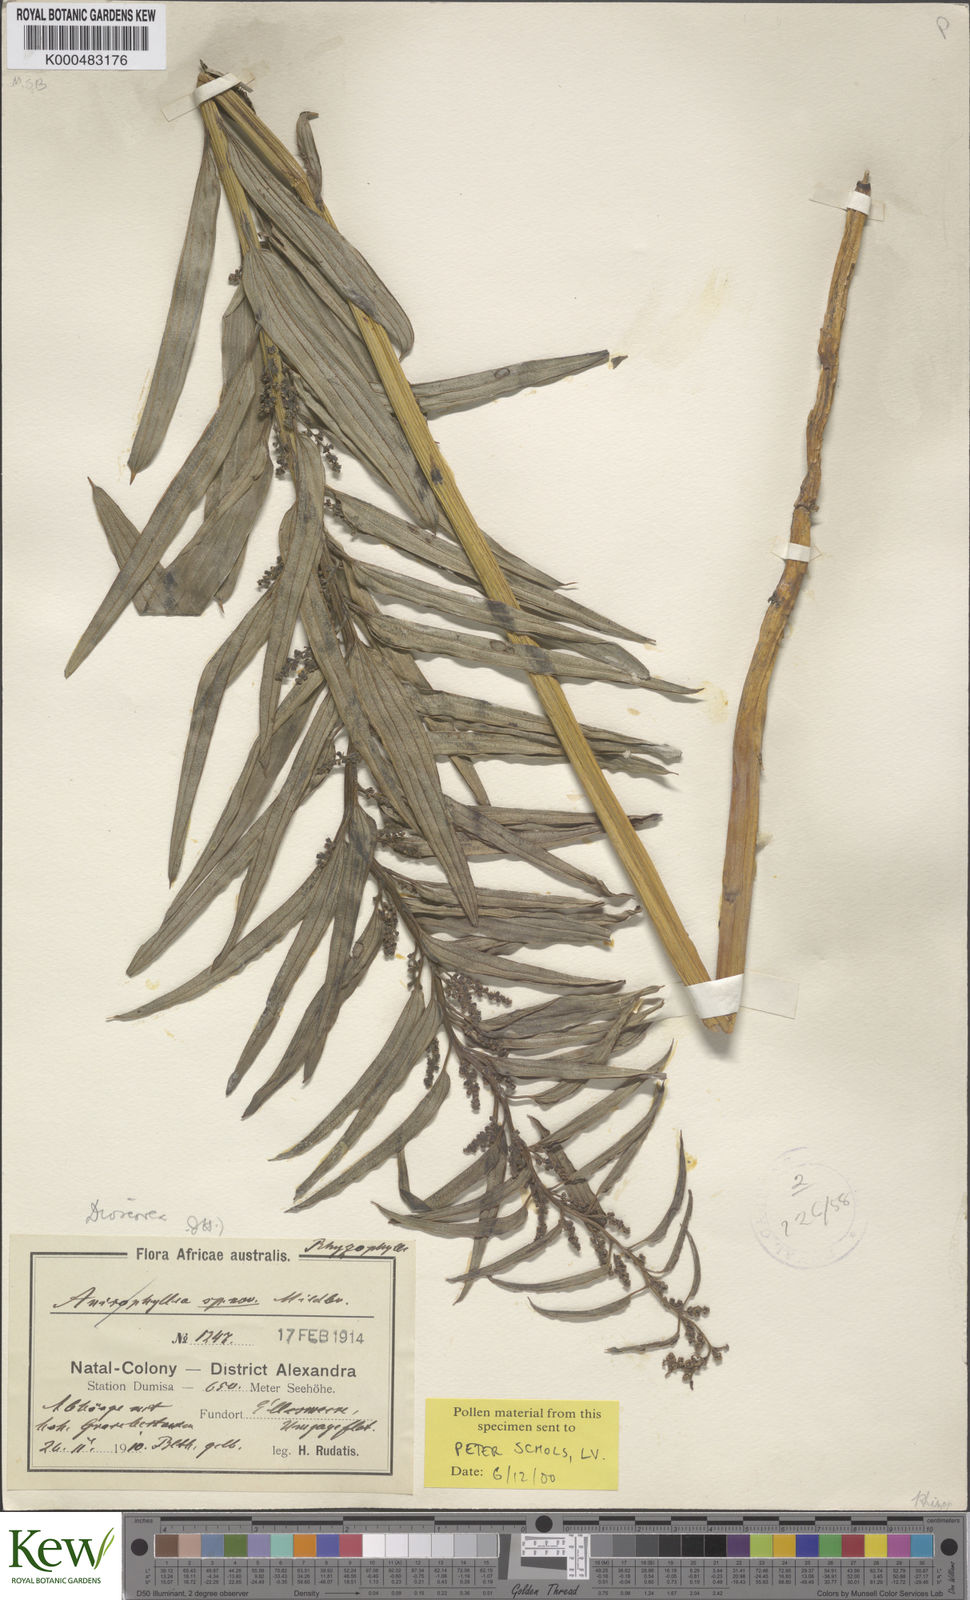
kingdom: Plantae
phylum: Tracheophyta
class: Liliopsida
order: Dioscoreales
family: Dioscoreaceae
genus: Dioscorea
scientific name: Dioscorea brownii
